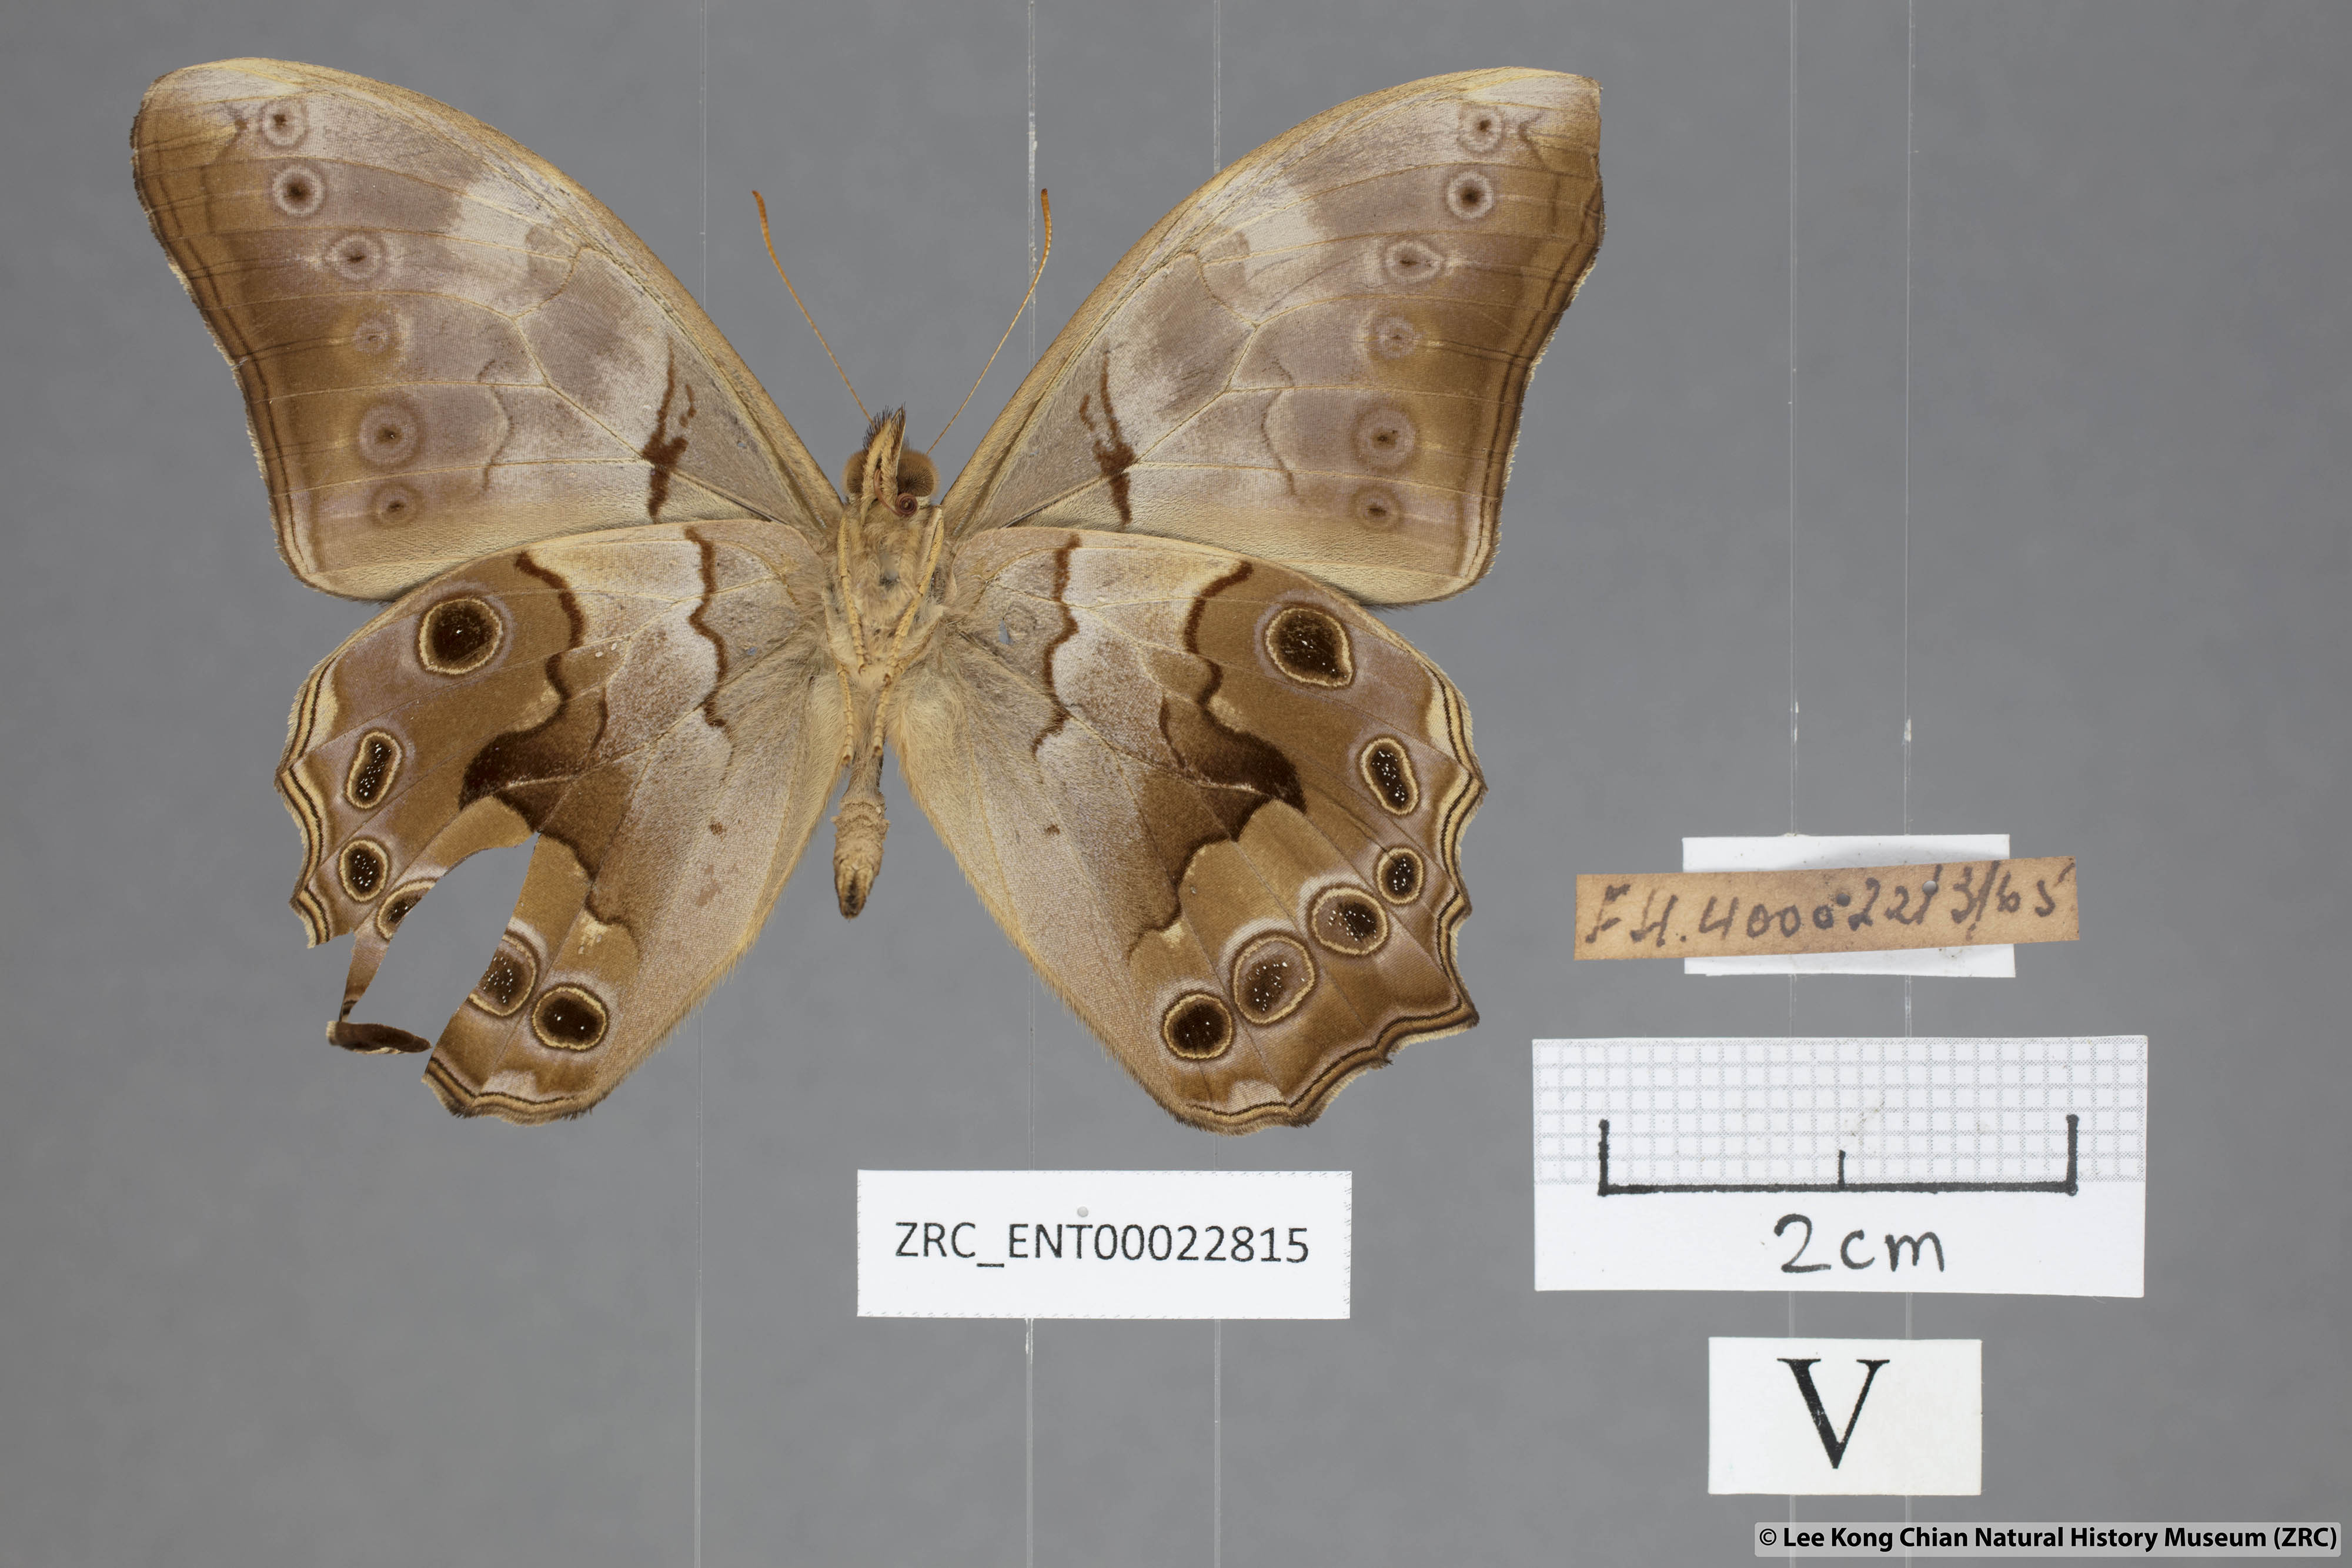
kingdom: Animalia
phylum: Arthropoda
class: Insecta
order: Lepidoptera
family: Nymphalidae
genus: Lethe
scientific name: Lethe chandica
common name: Angled red forester
